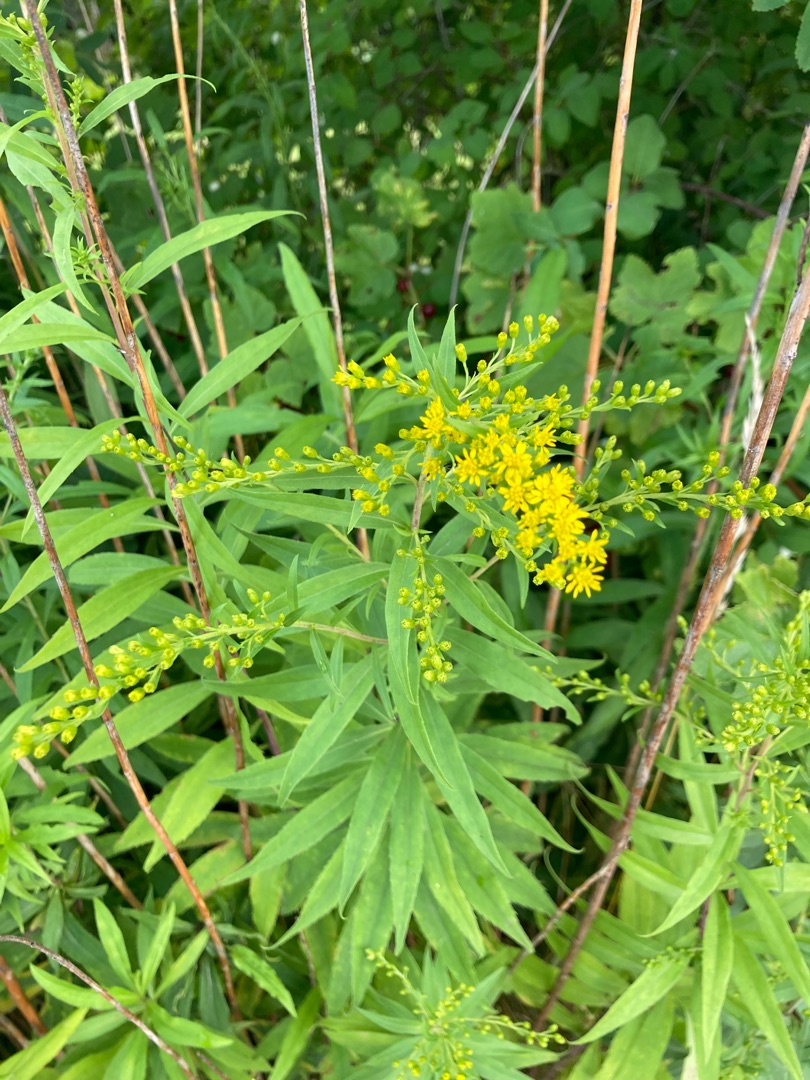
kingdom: Plantae
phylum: Tracheophyta
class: Magnoliopsida
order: Asterales
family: Asteraceae
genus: Solidago
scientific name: Solidago gigantea
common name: Sildig gyldenris
